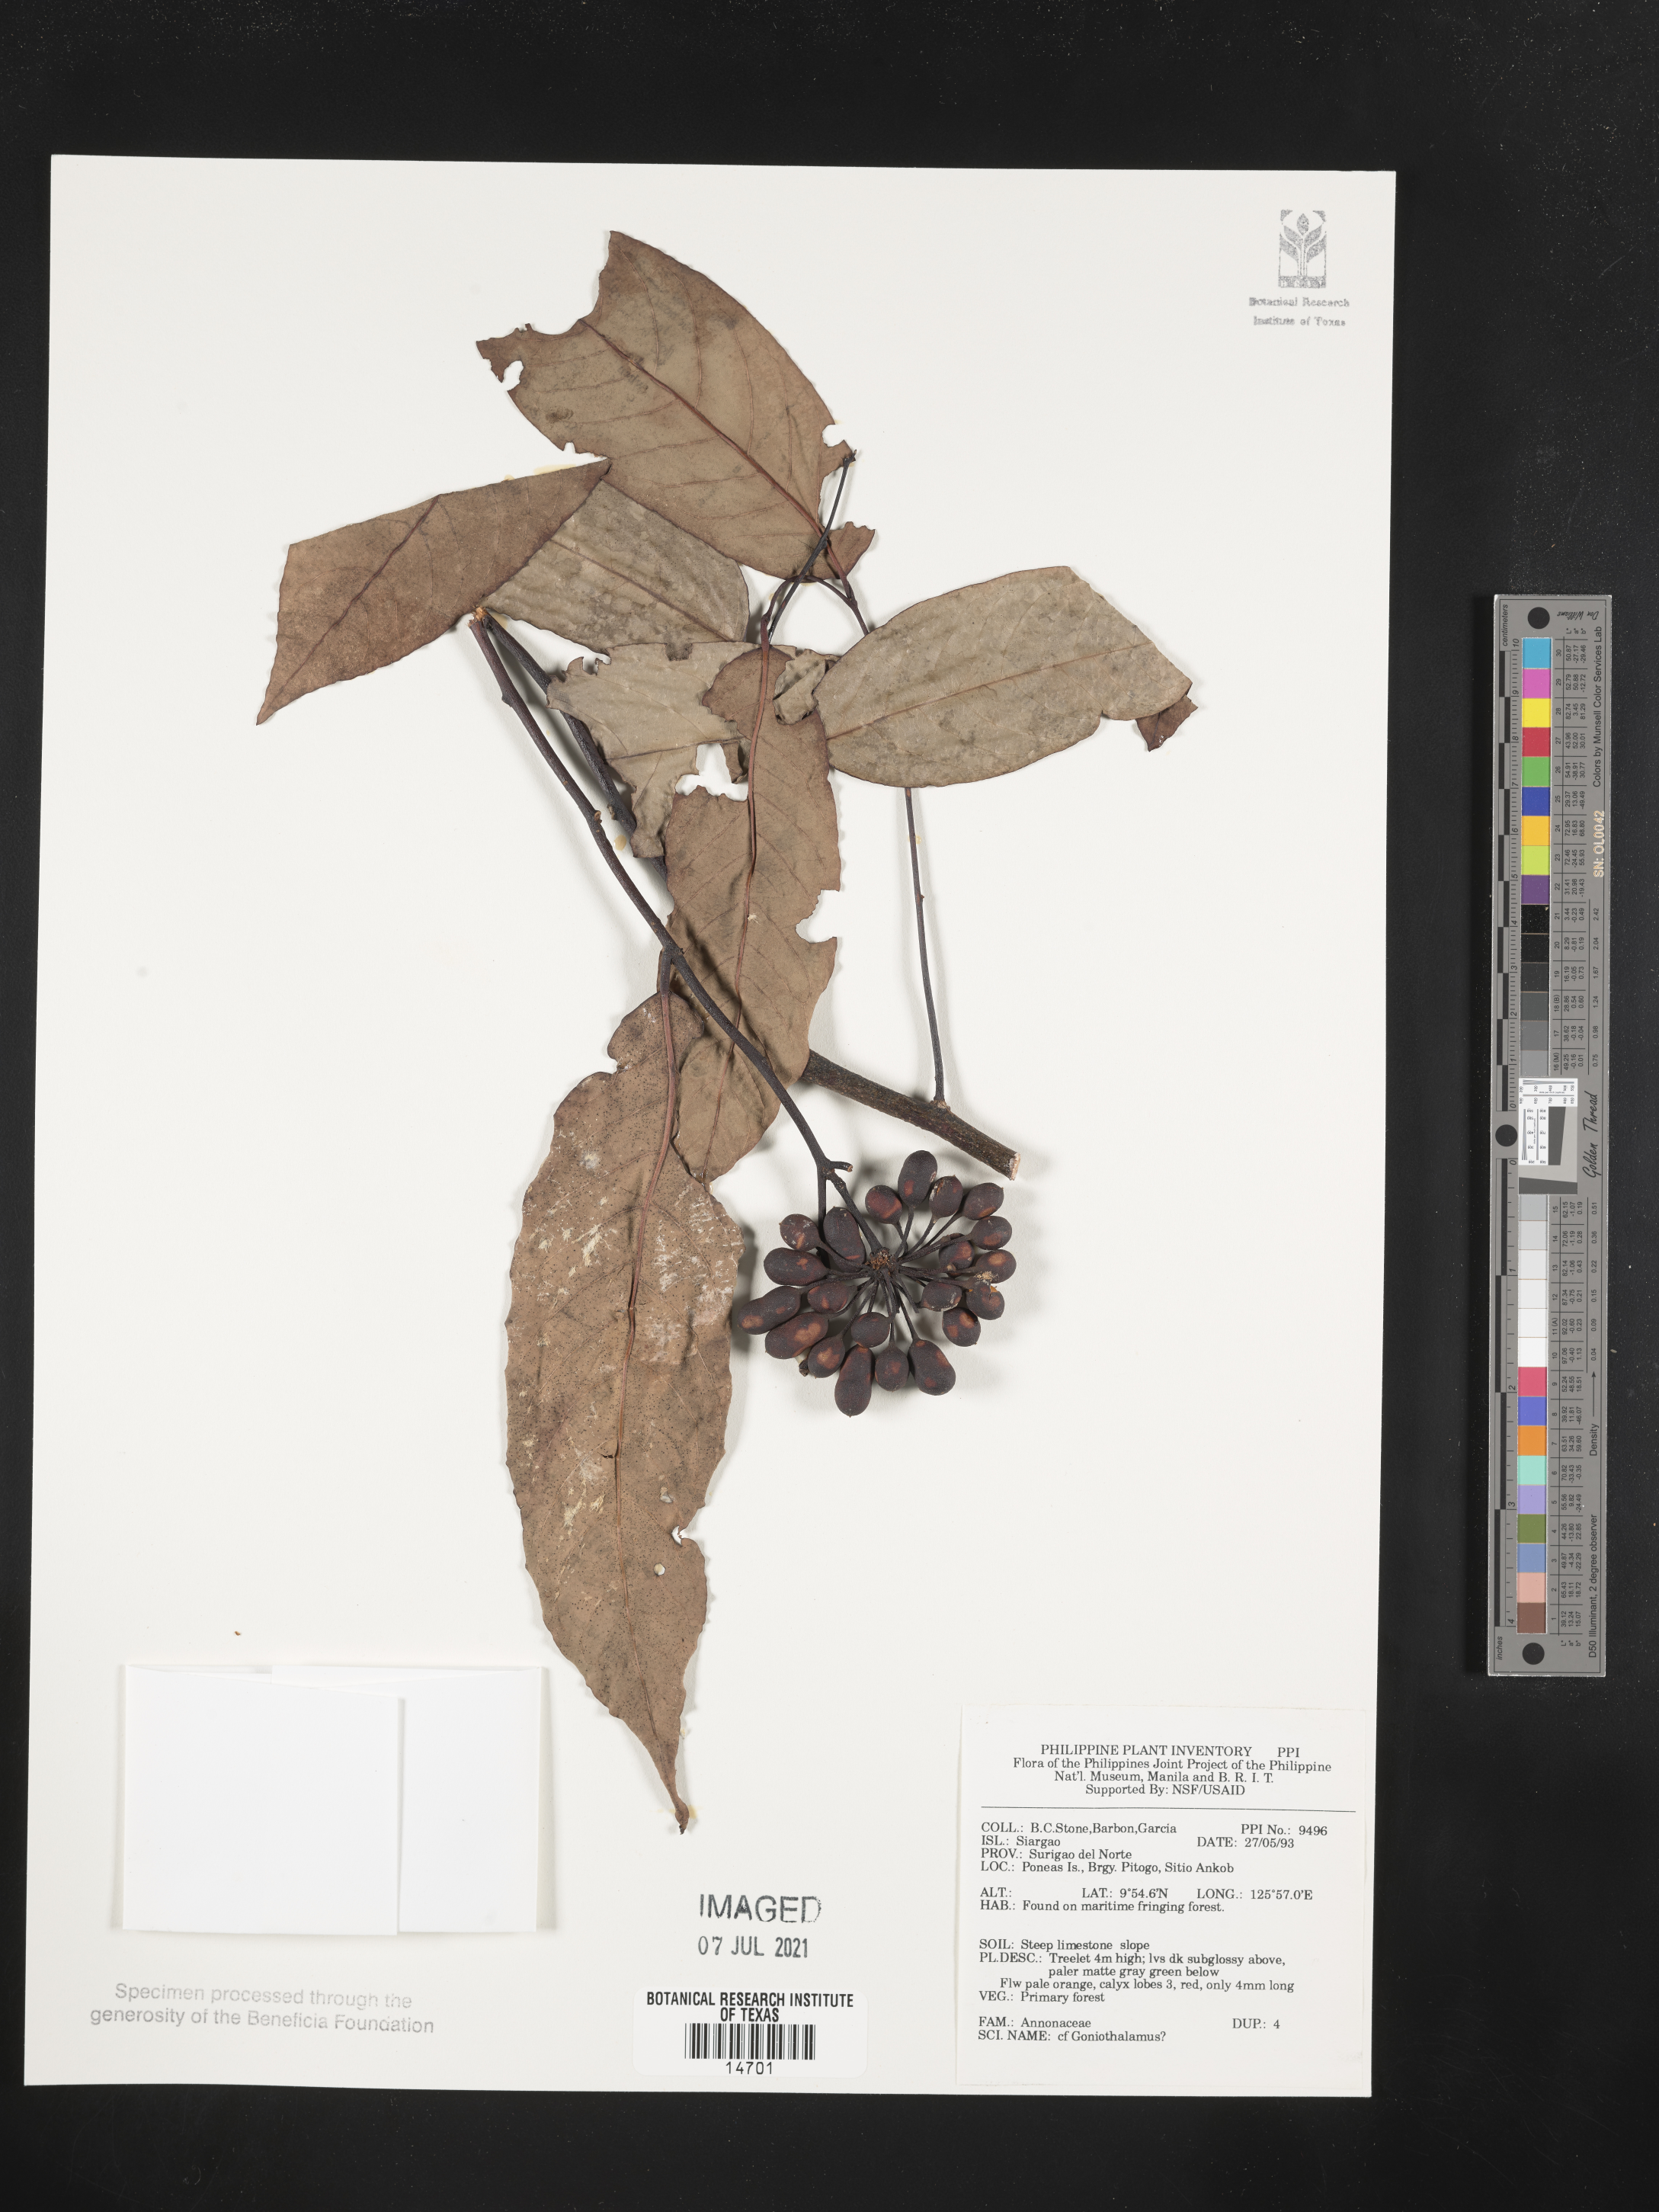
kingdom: Plantae
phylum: Tracheophyta
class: Magnoliopsida
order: Magnoliales
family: Annonaceae
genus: Goniothalamus
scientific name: Goniothalamus
